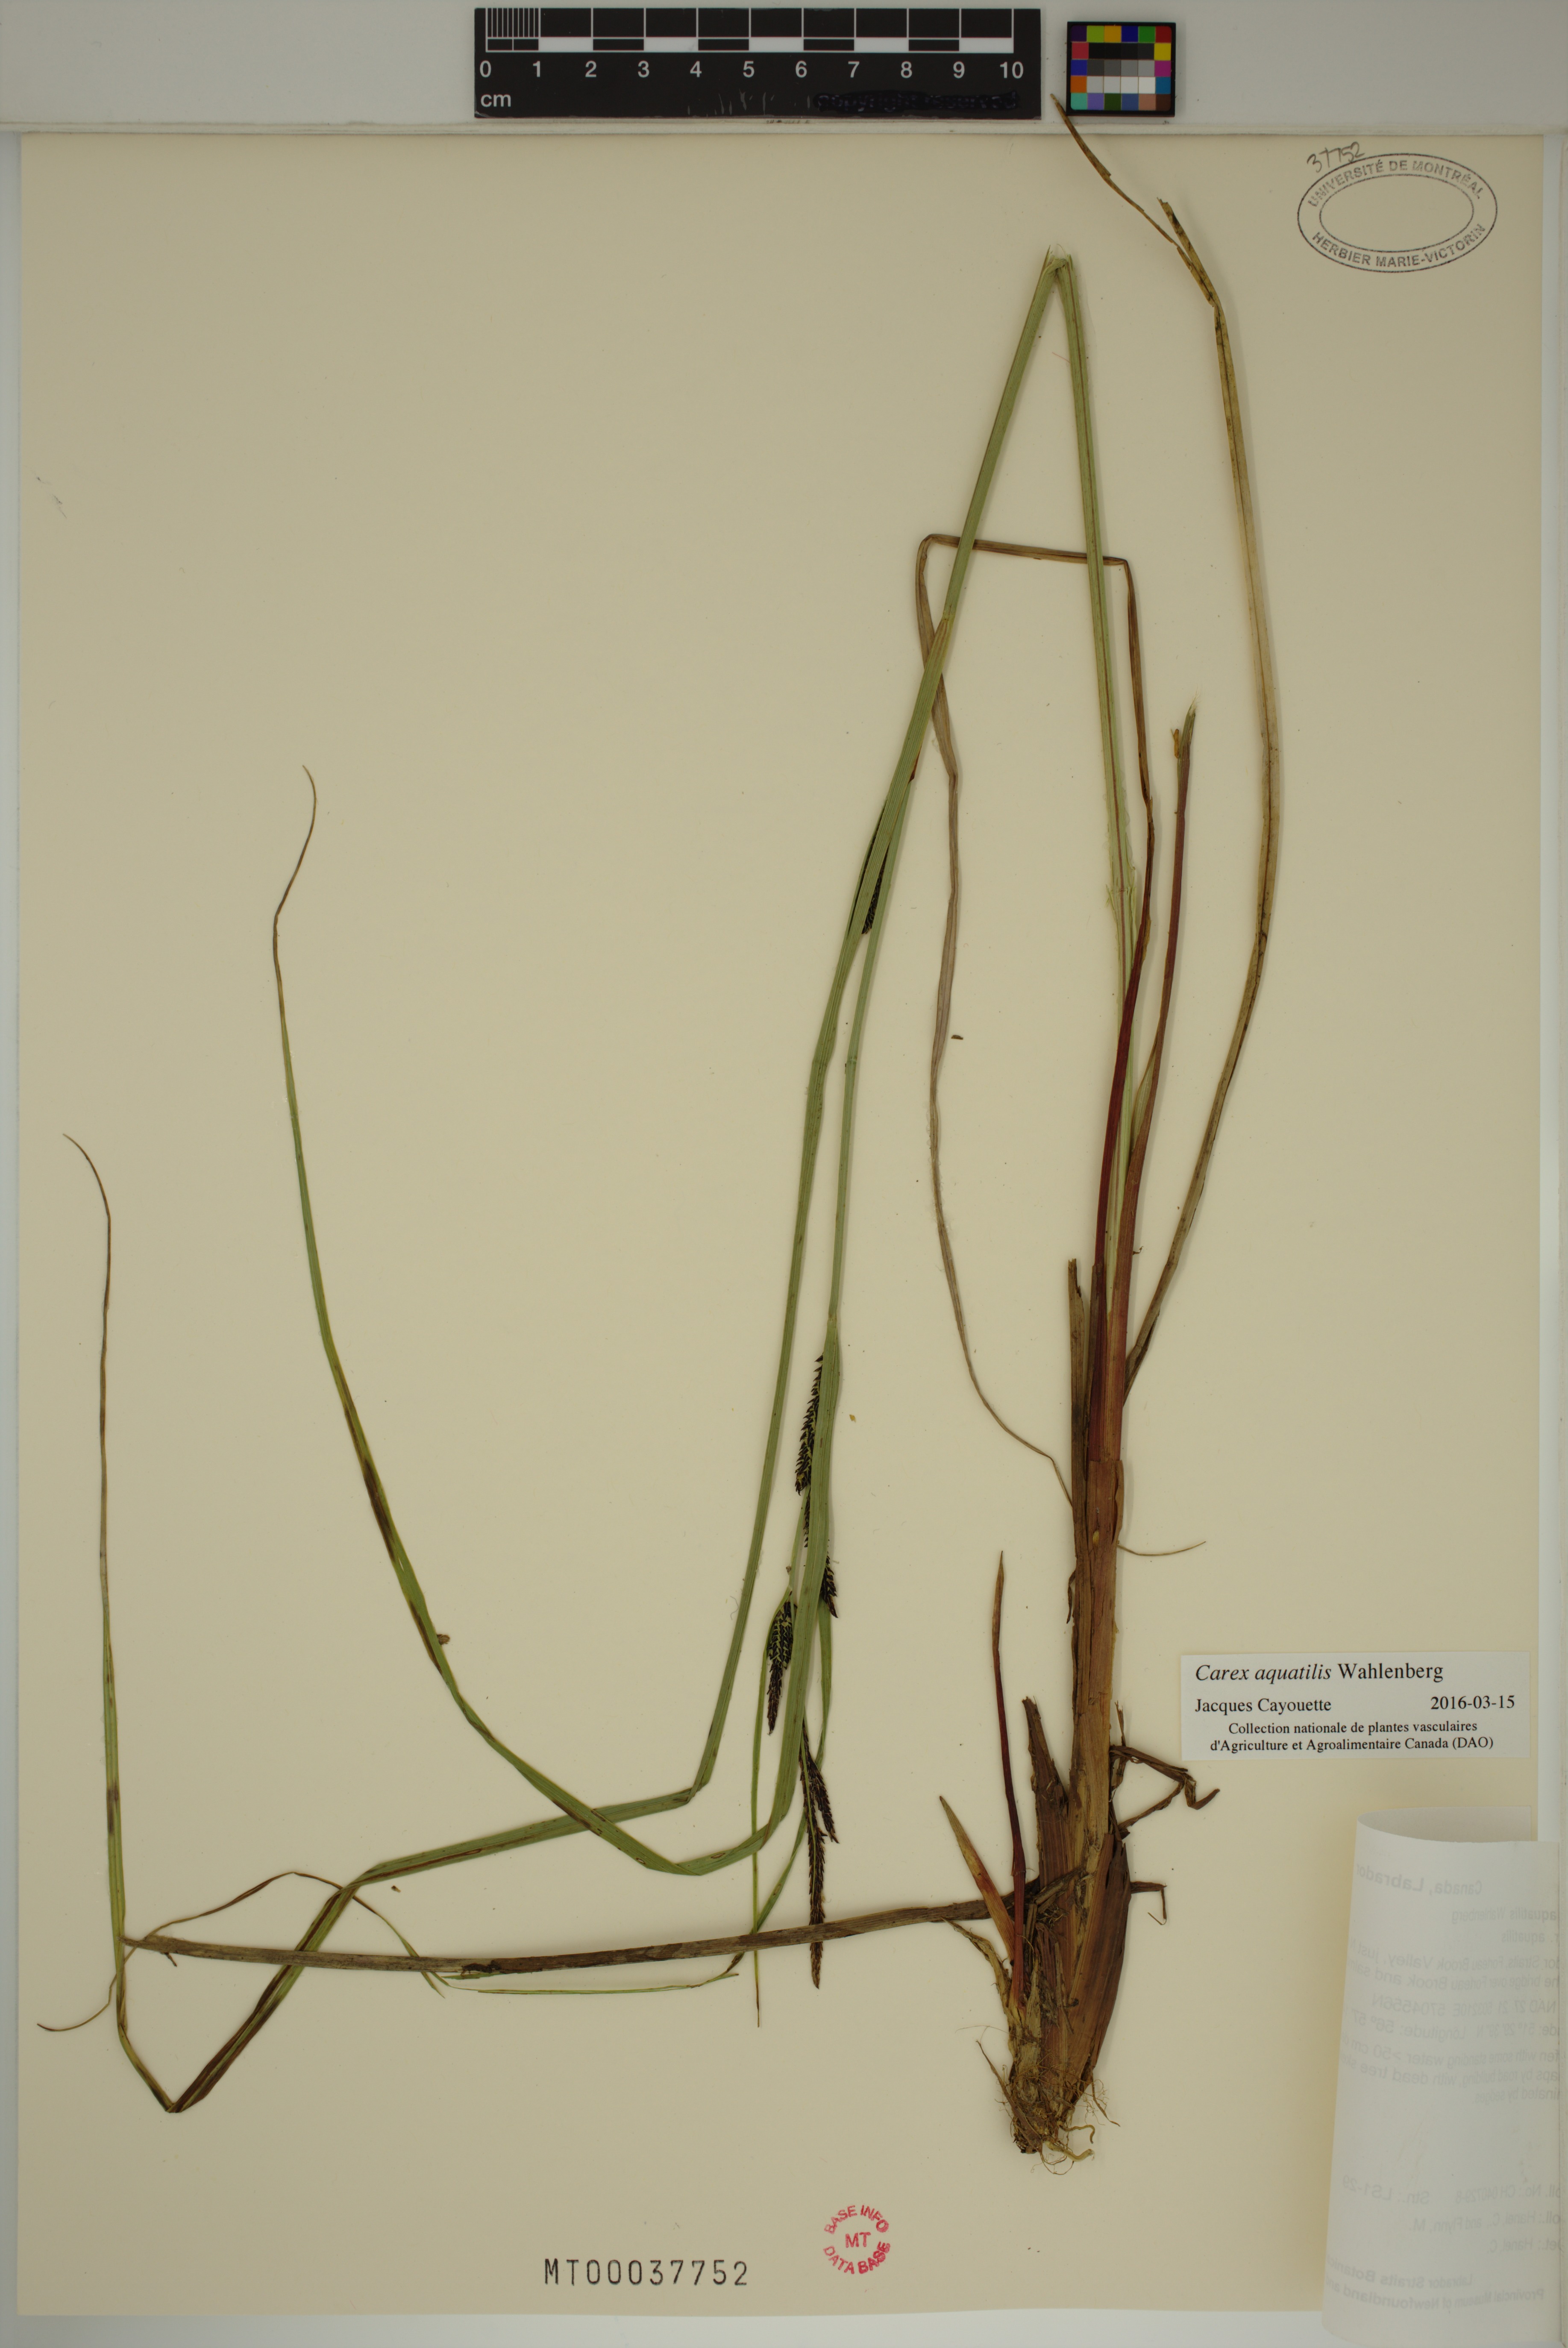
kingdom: Plantae
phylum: Tracheophyta
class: Liliopsida
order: Poales
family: Cyperaceae
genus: Carex
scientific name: Carex aquatilis
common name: Water sedge
